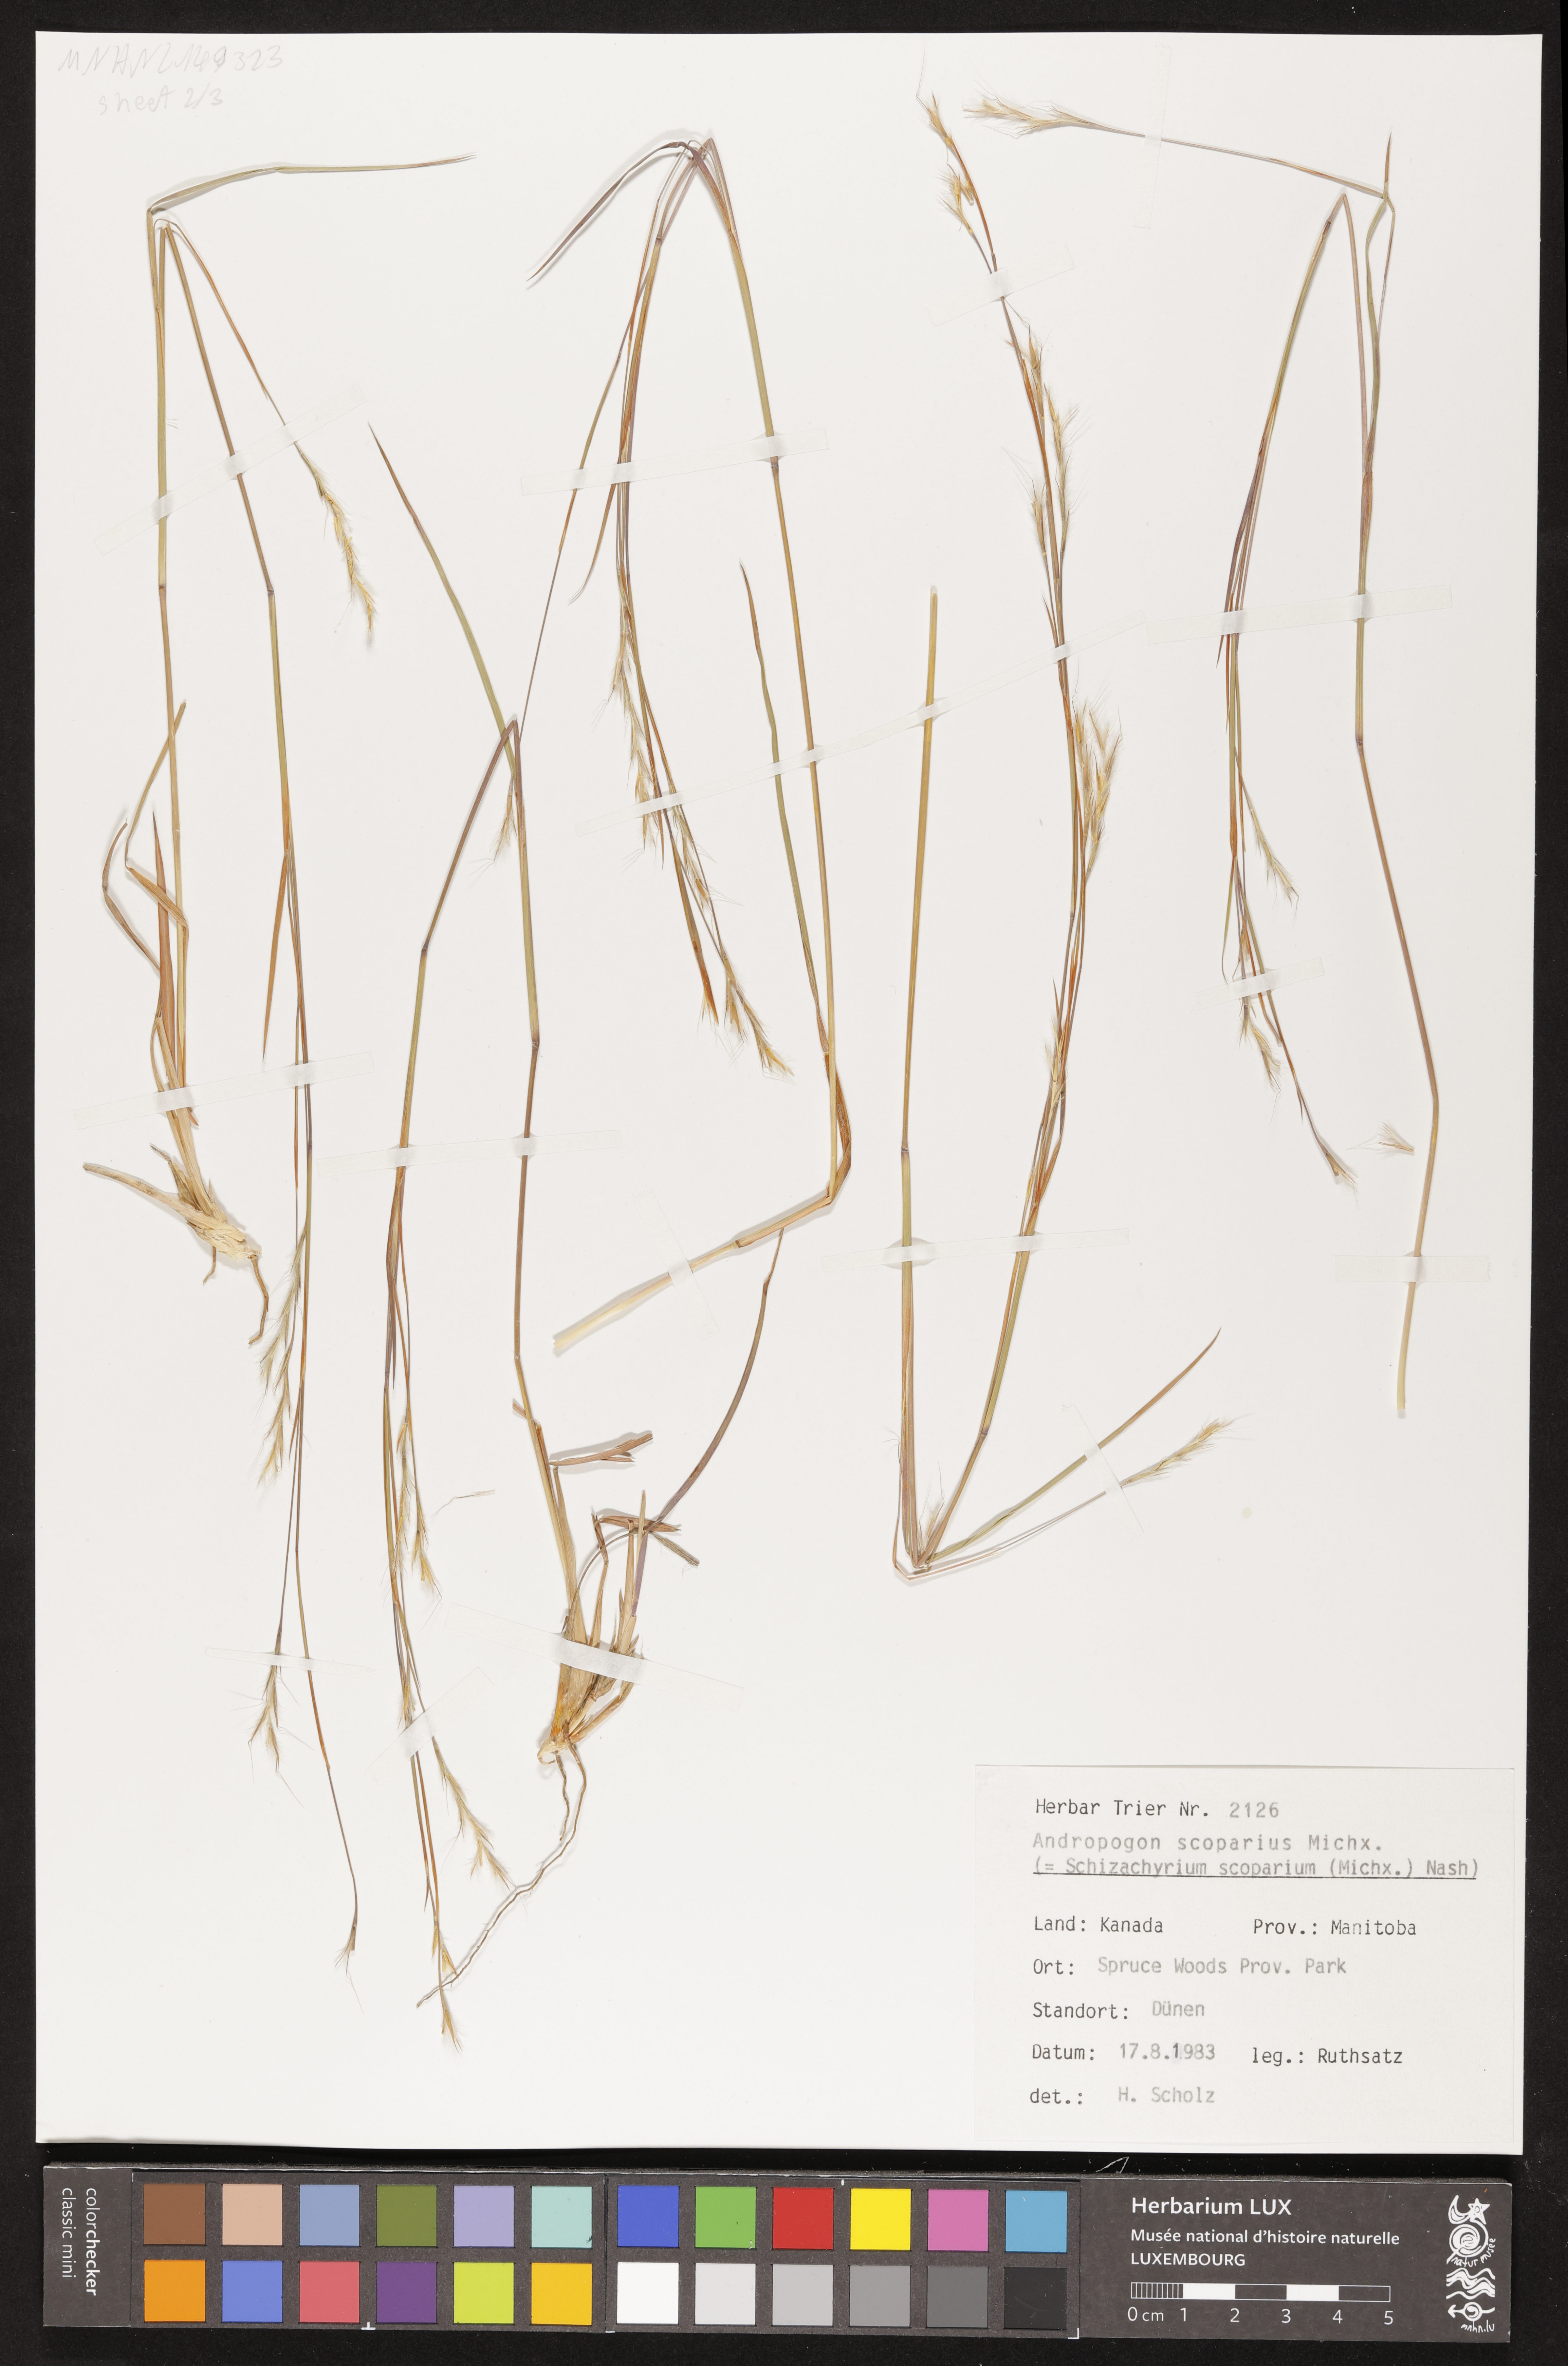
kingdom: Plantae
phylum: Tracheophyta
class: Liliopsida
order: Poales
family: Poaceae
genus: Schizachyrium
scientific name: Schizachyrium scoparium
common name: Little bluestem
